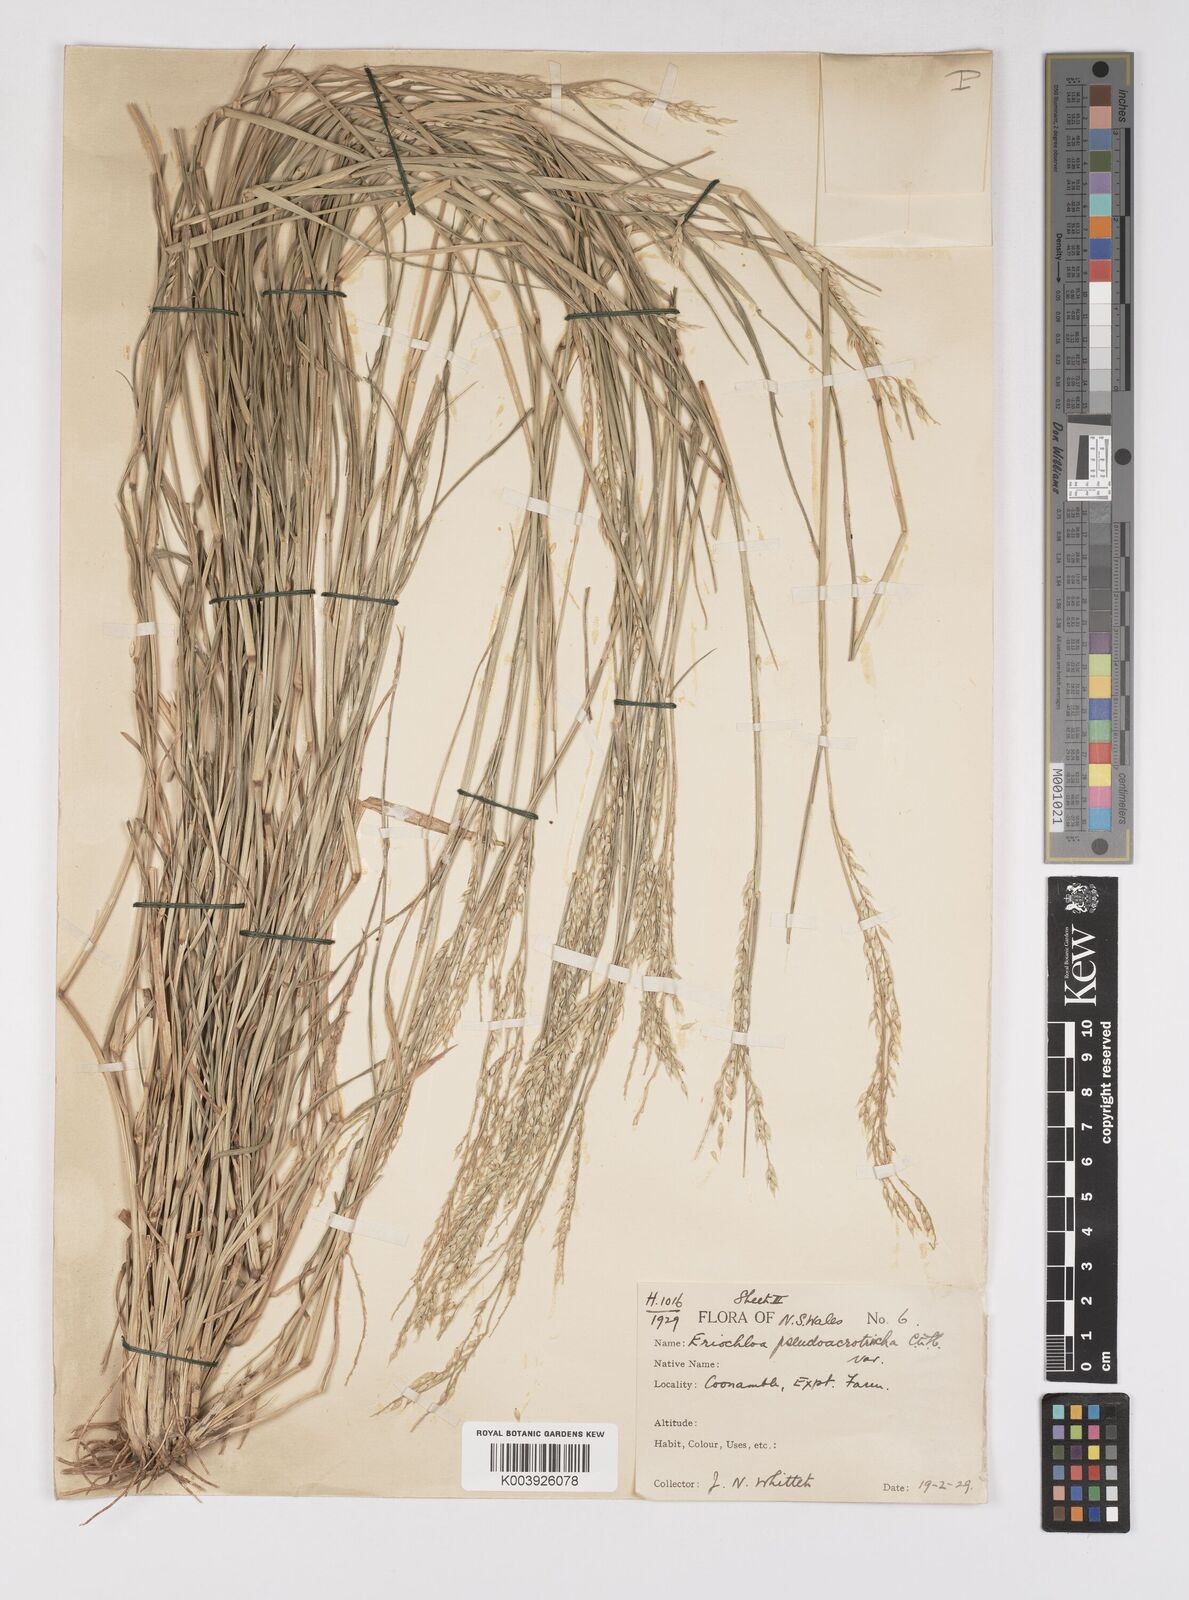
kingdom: Plantae
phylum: Tracheophyta
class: Liliopsida
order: Poales
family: Poaceae
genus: Eriochloa
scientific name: Eriochloa pseudoacrotricha
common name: Perennial cup-grass
